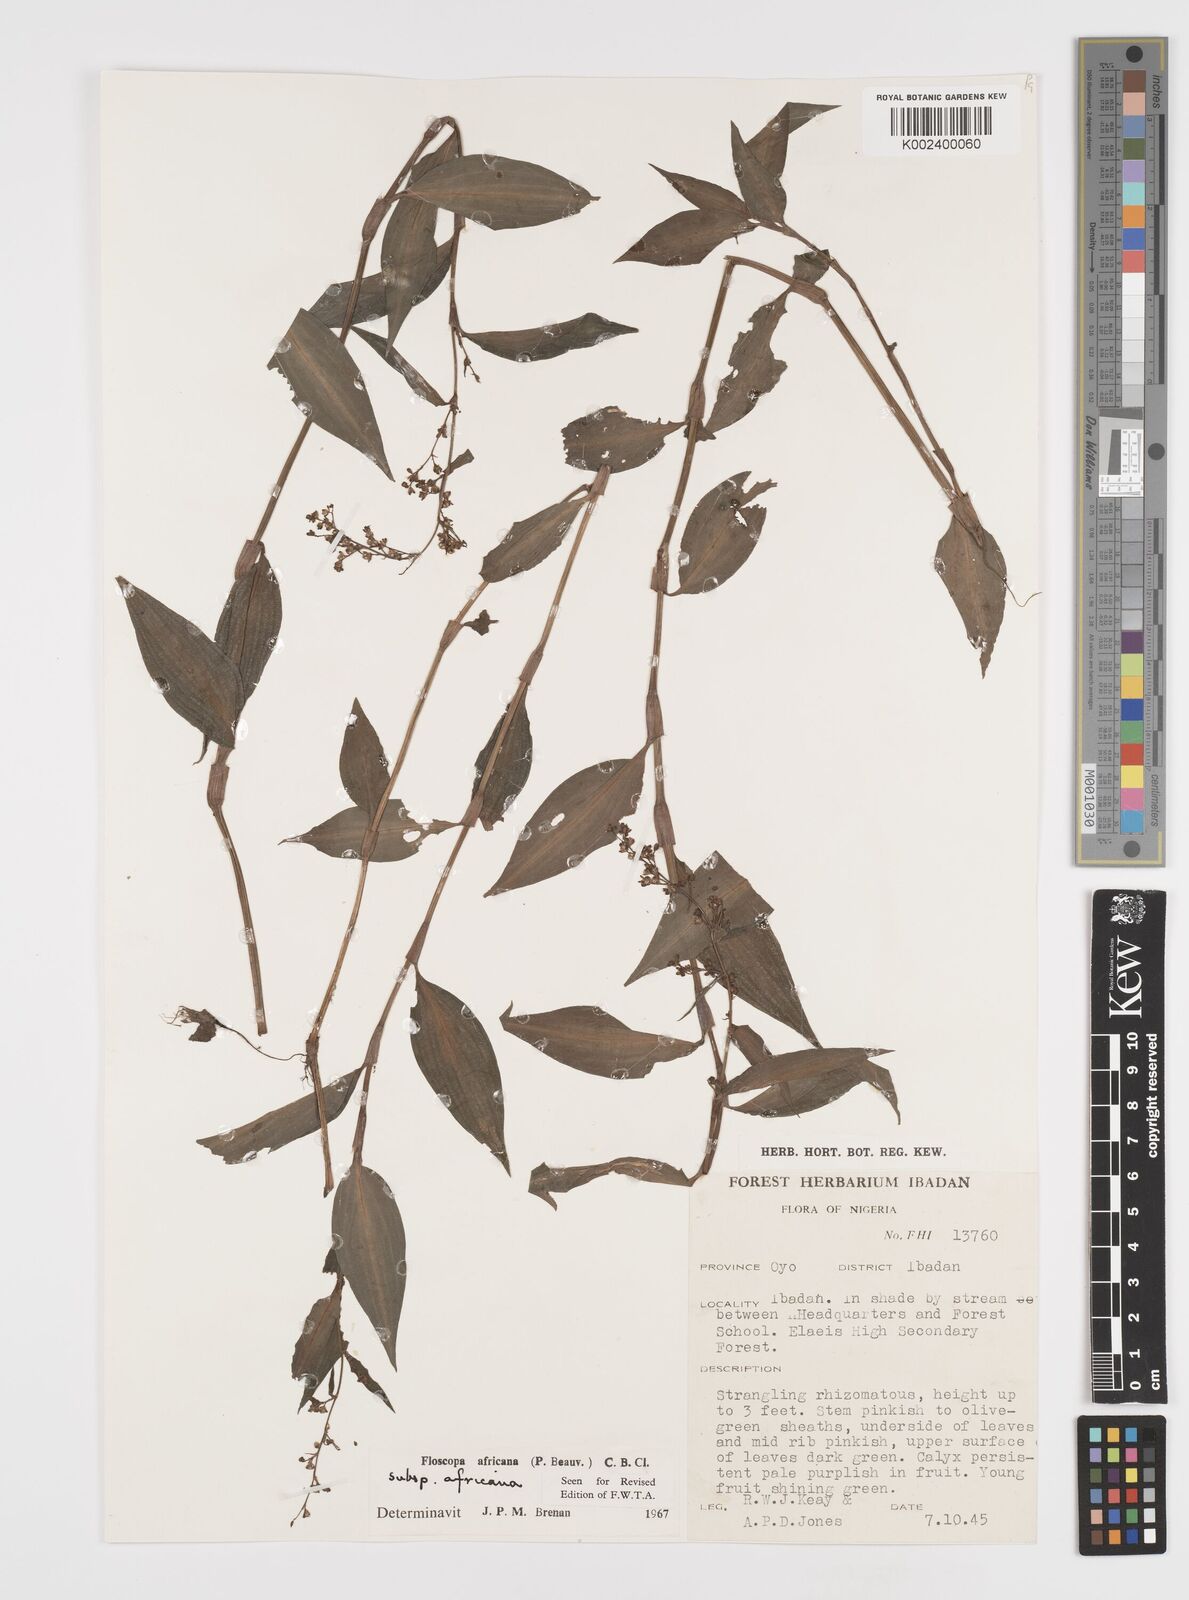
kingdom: Plantae
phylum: Tracheophyta
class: Liliopsida
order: Commelinales
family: Commelinaceae
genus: Floscopa
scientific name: Floscopa africana
